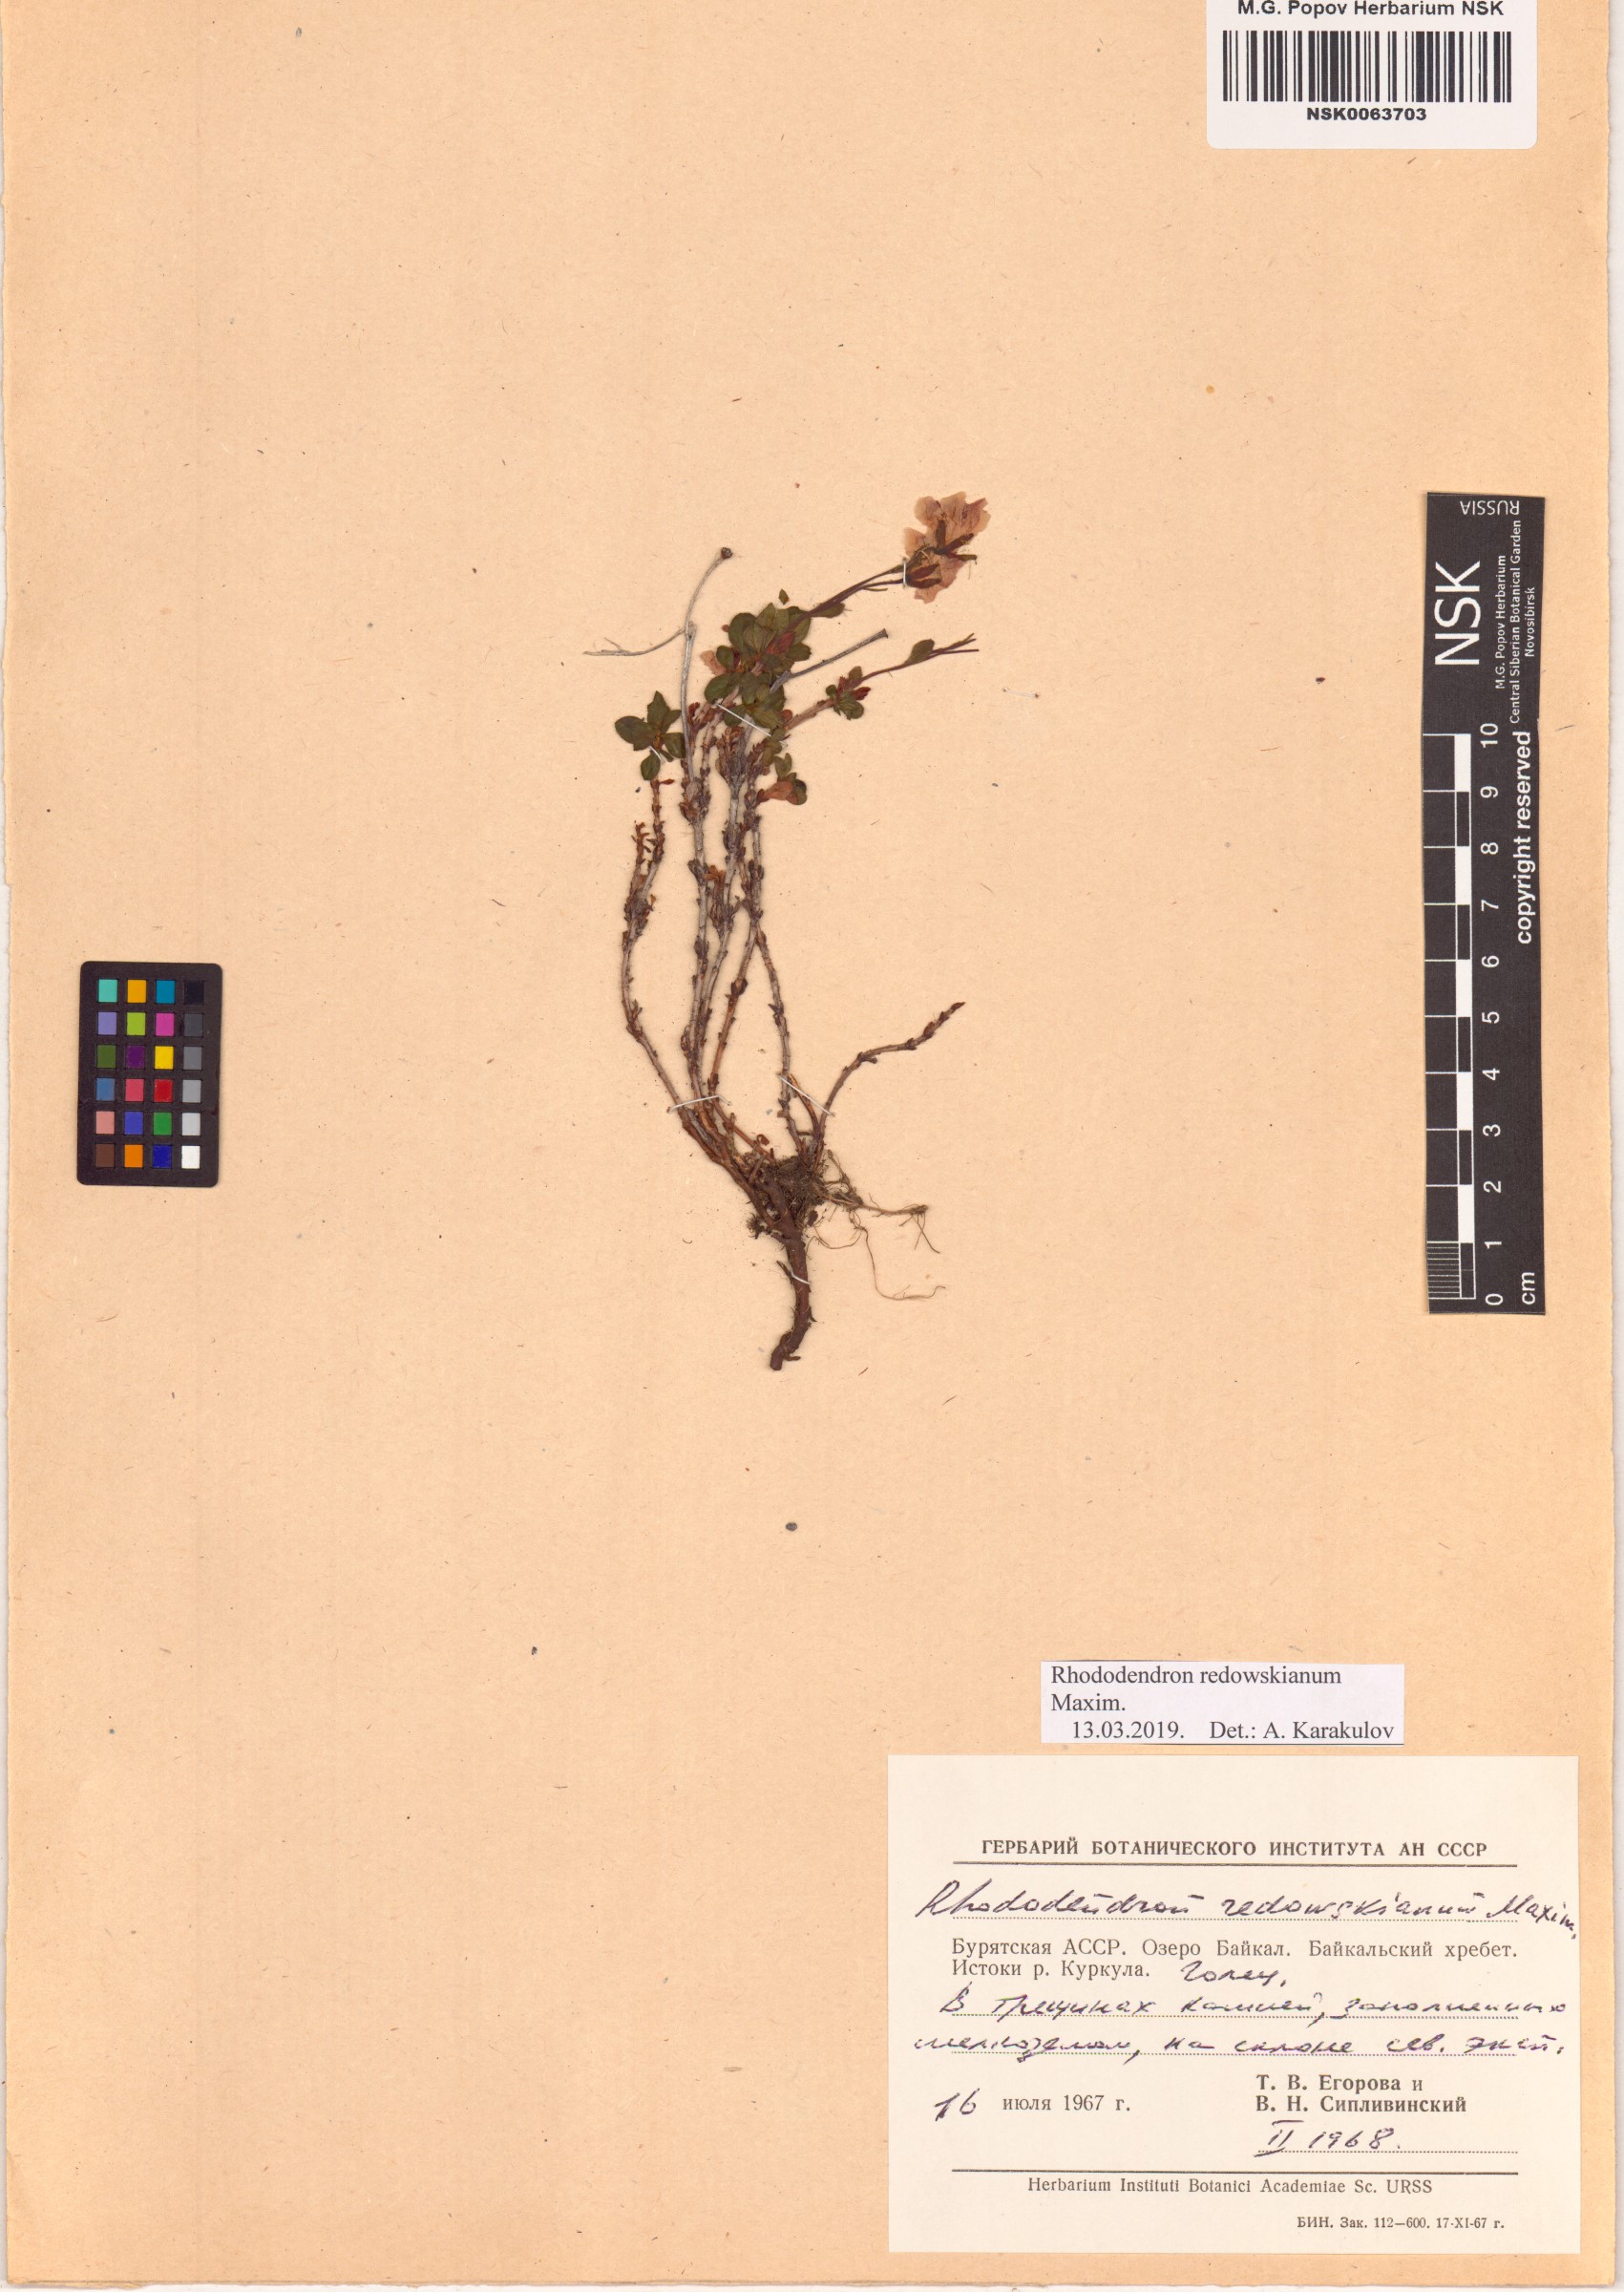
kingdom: Plantae
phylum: Tracheophyta
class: Magnoliopsida
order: Ericales
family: Ericaceae
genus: Rhododendron
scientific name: Rhododendron redowskianum
